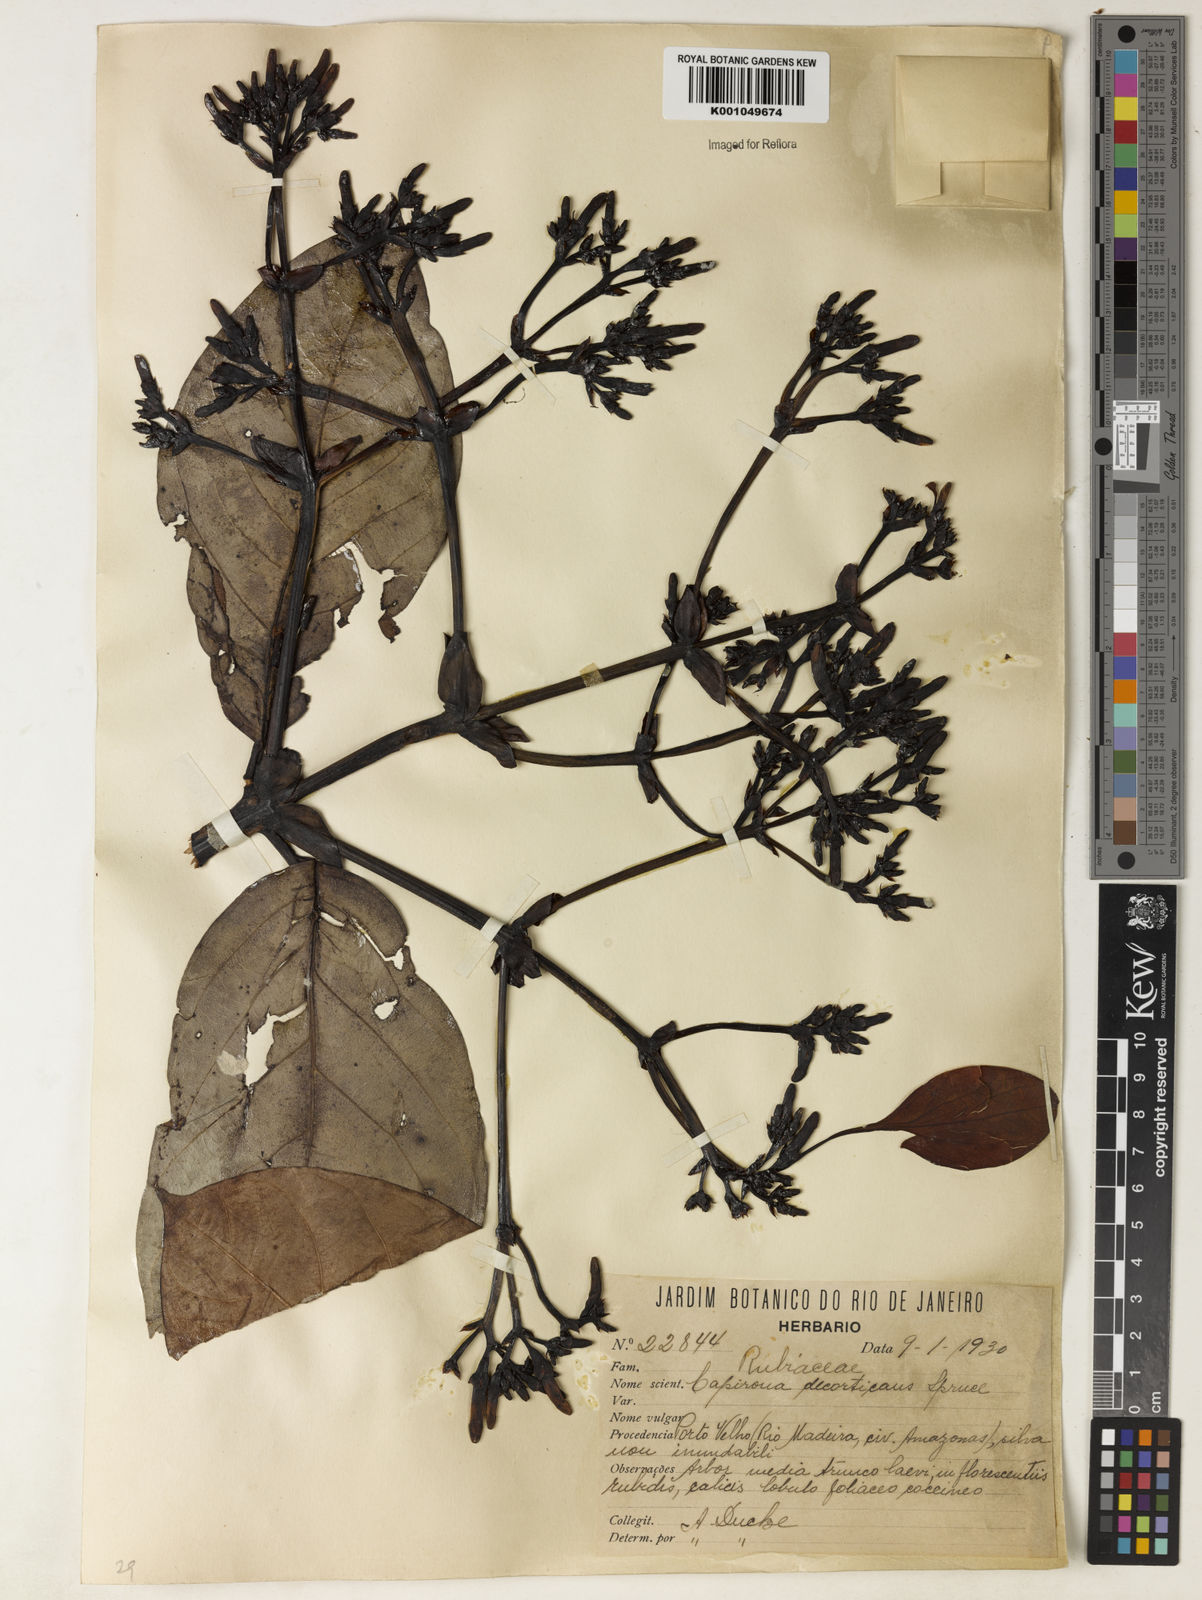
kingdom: Plantae
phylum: Tracheophyta
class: Magnoliopsida
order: Gentianales
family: Rubiaceae
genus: Capirona
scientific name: Capirona macrophylla
